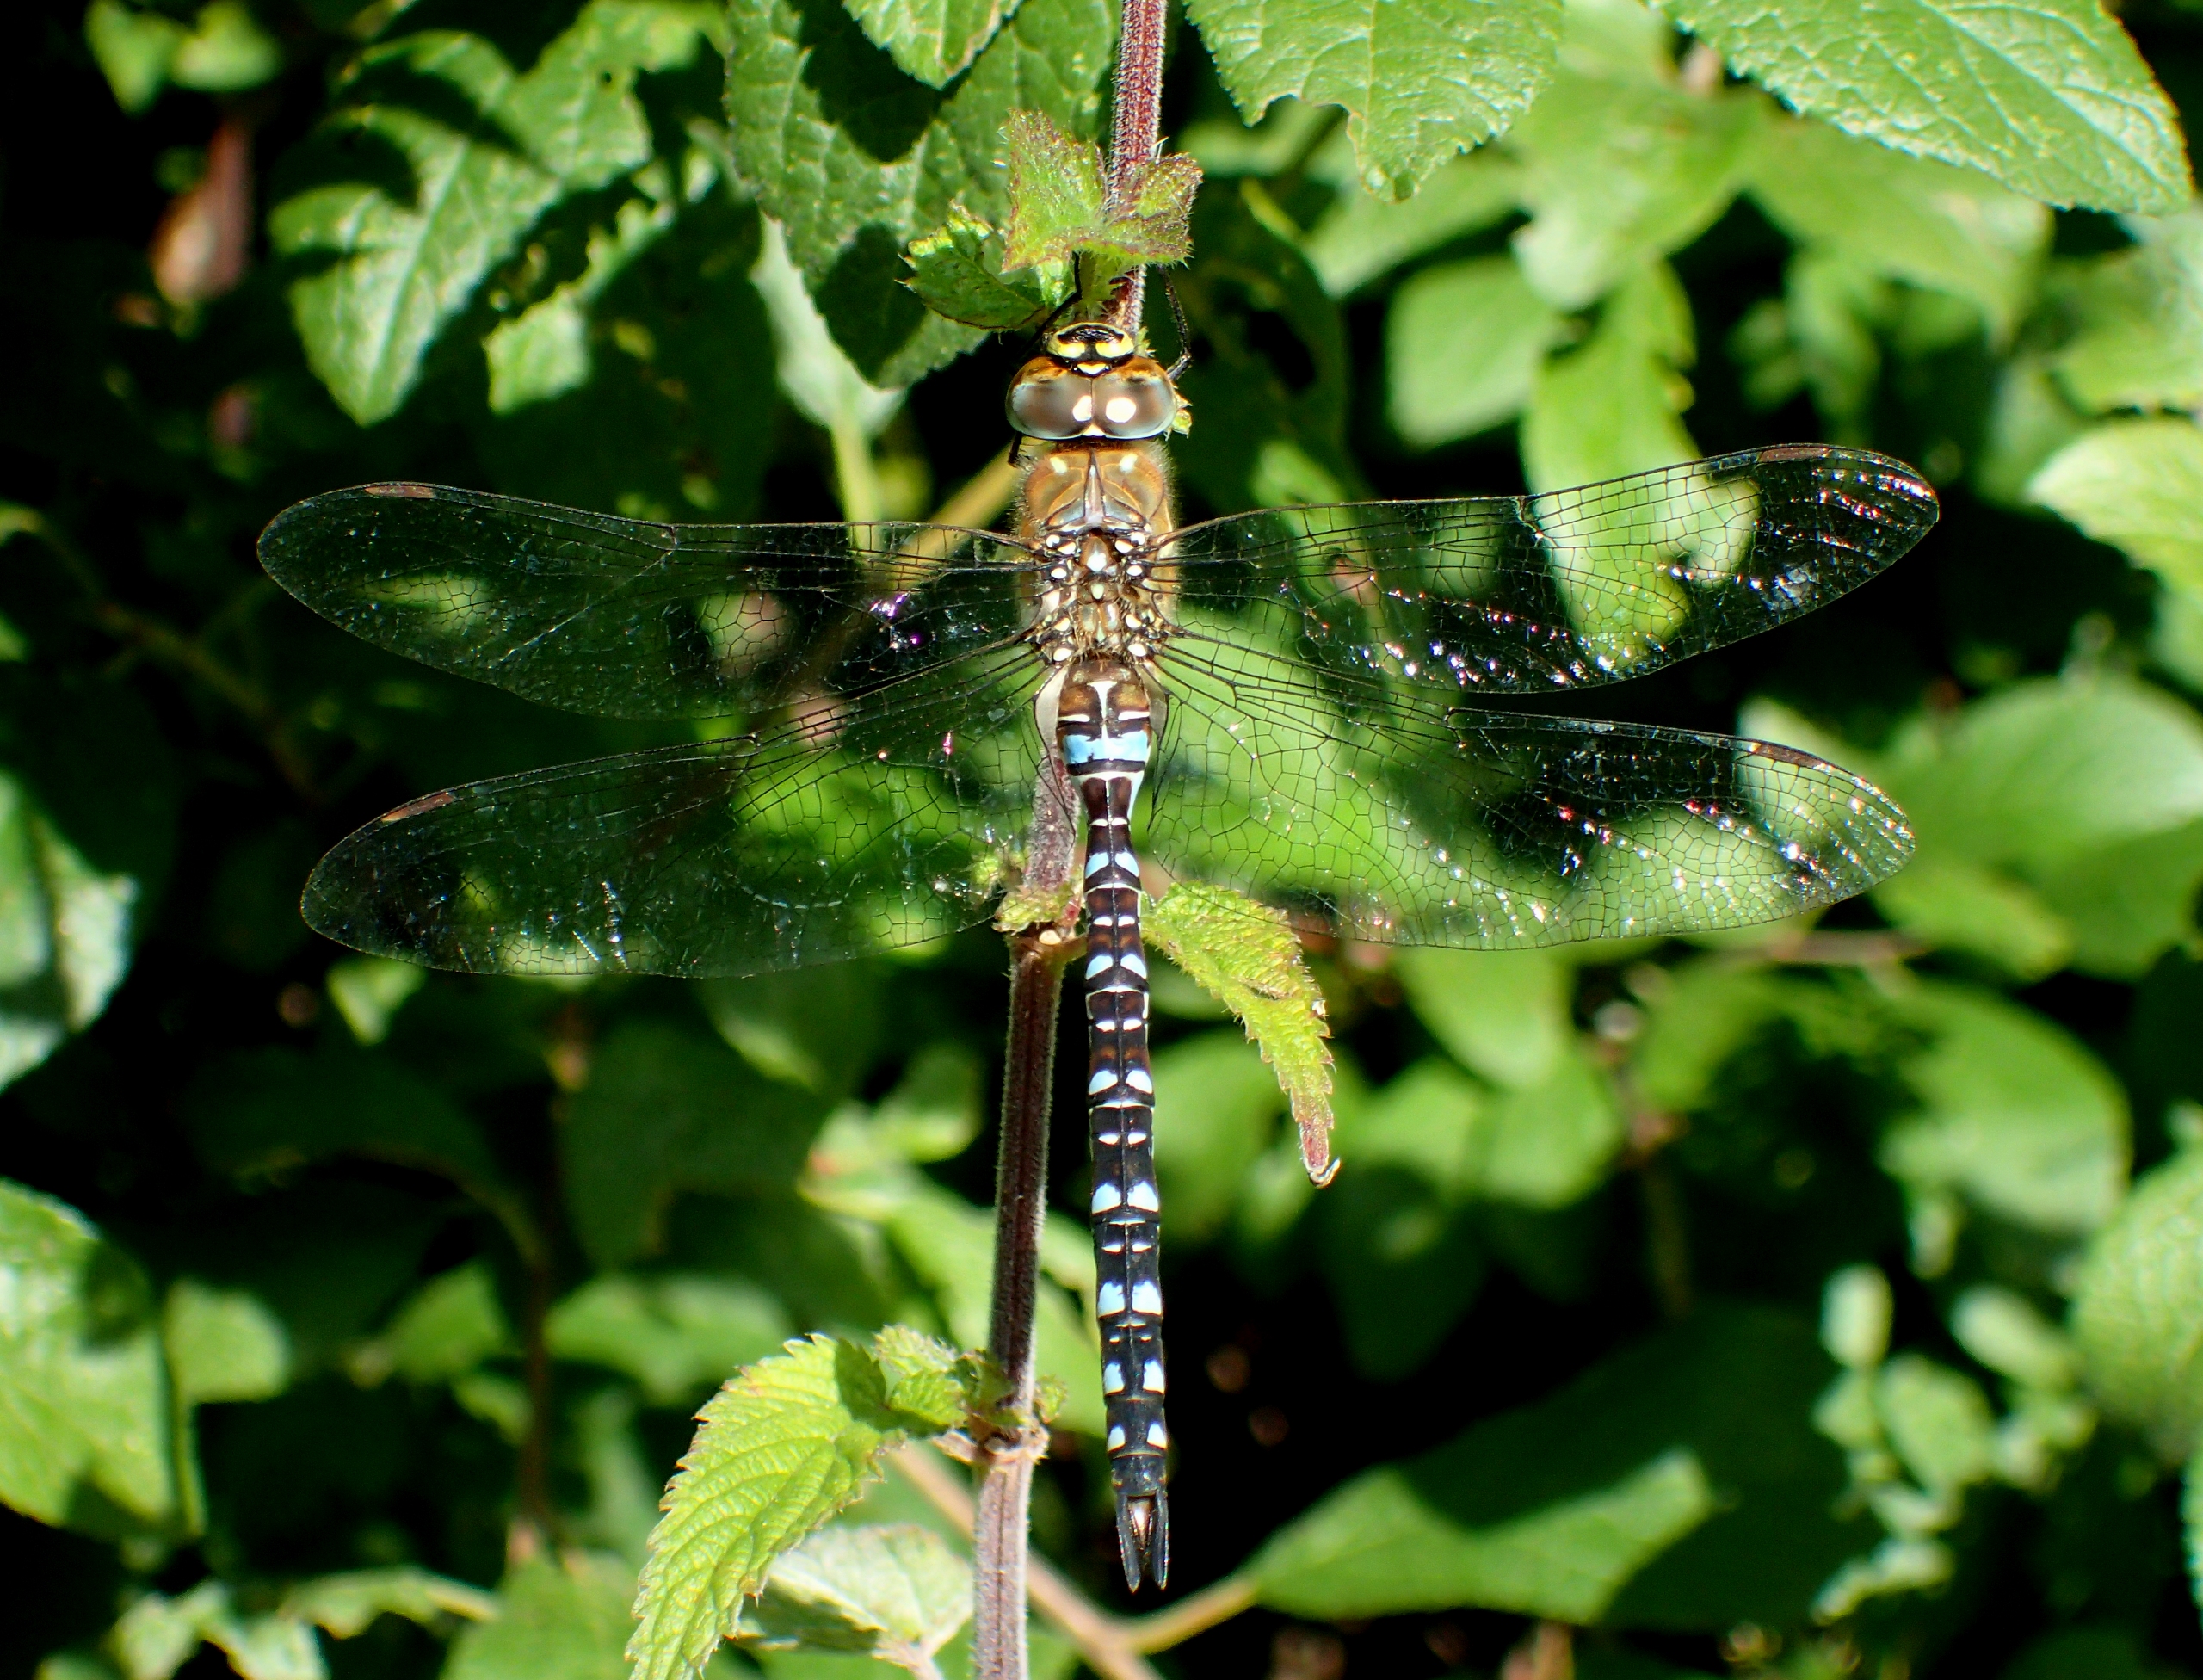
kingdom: Animalia
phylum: Arthropoda
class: Insecta
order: Odonata
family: Aeshnidae
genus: Aeshna
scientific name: Aeshna mixta
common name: Efterårs-mosaikguldsmed
